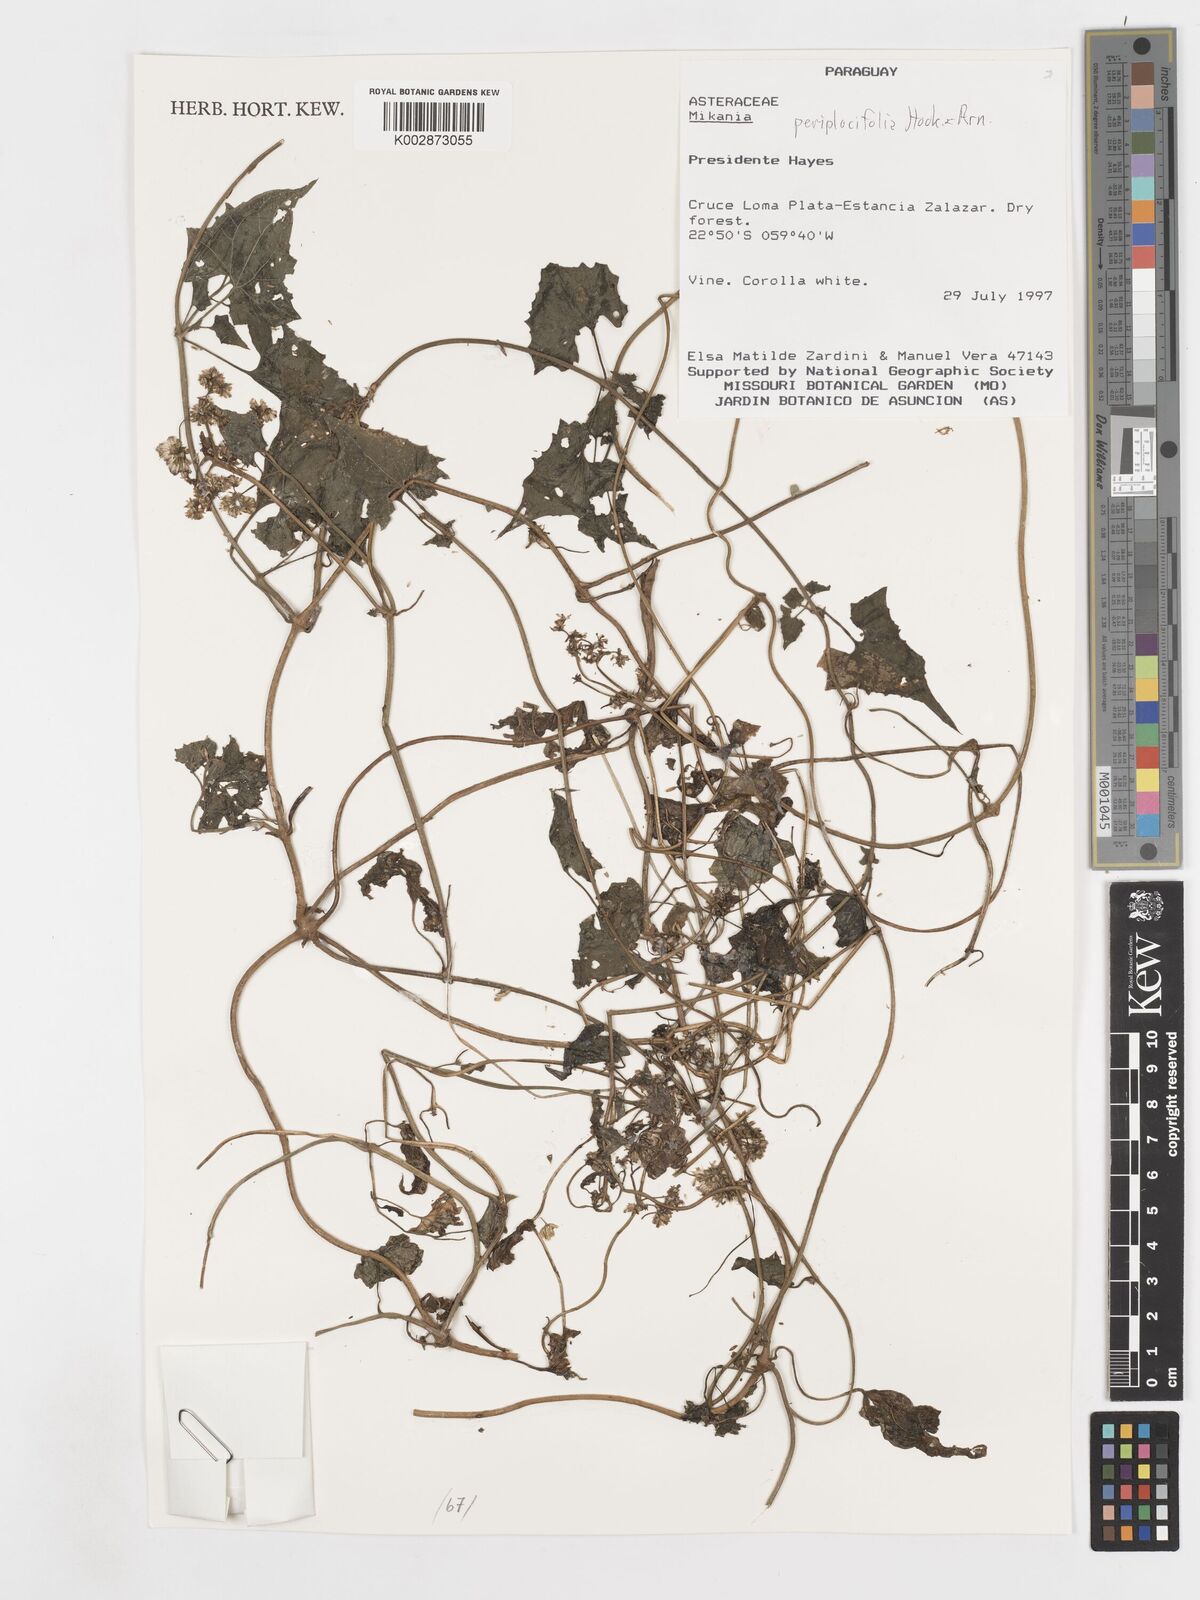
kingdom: Plantae
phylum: Tracheophyta
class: Magnoliopsida
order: Asterales
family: Asteraceae
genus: Mikania
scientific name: Mikania periplocifolia
